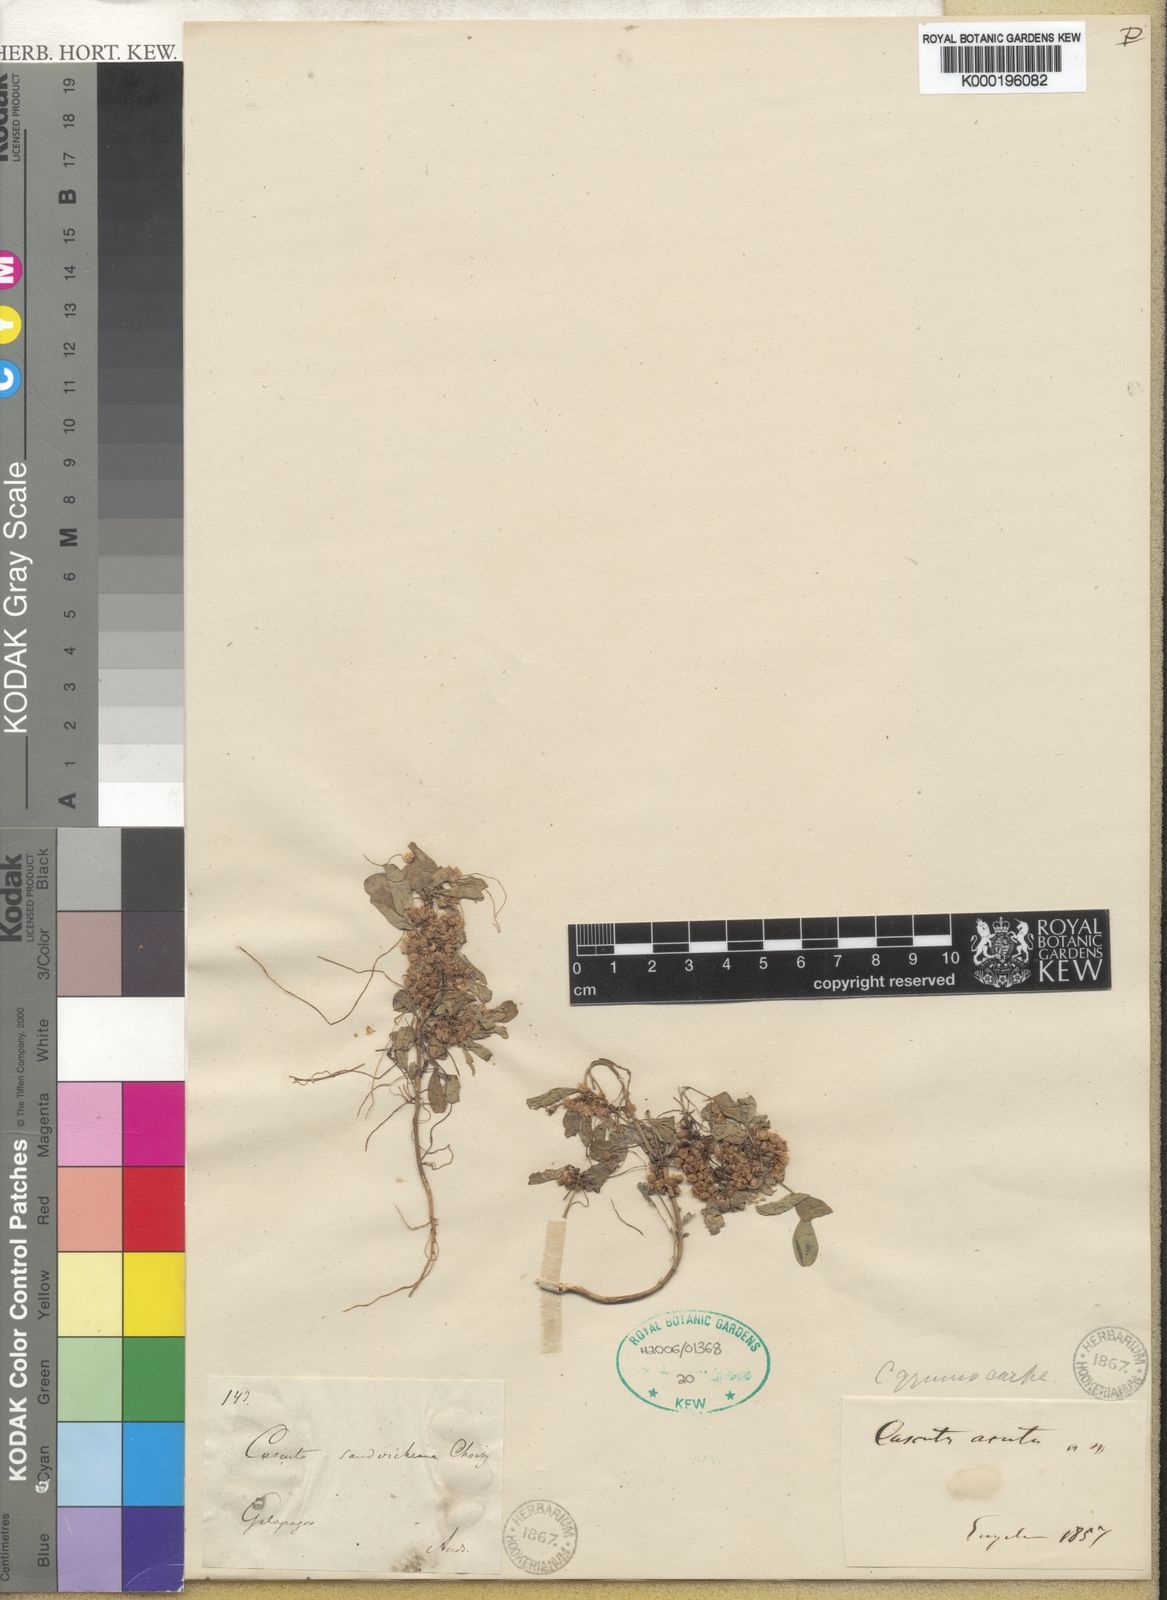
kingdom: Plantae
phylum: Tracheophyta
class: Magnoliopsida
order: Solanales
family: Convolvulaceae
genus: Cuscuta
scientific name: Cuscuta acuta
